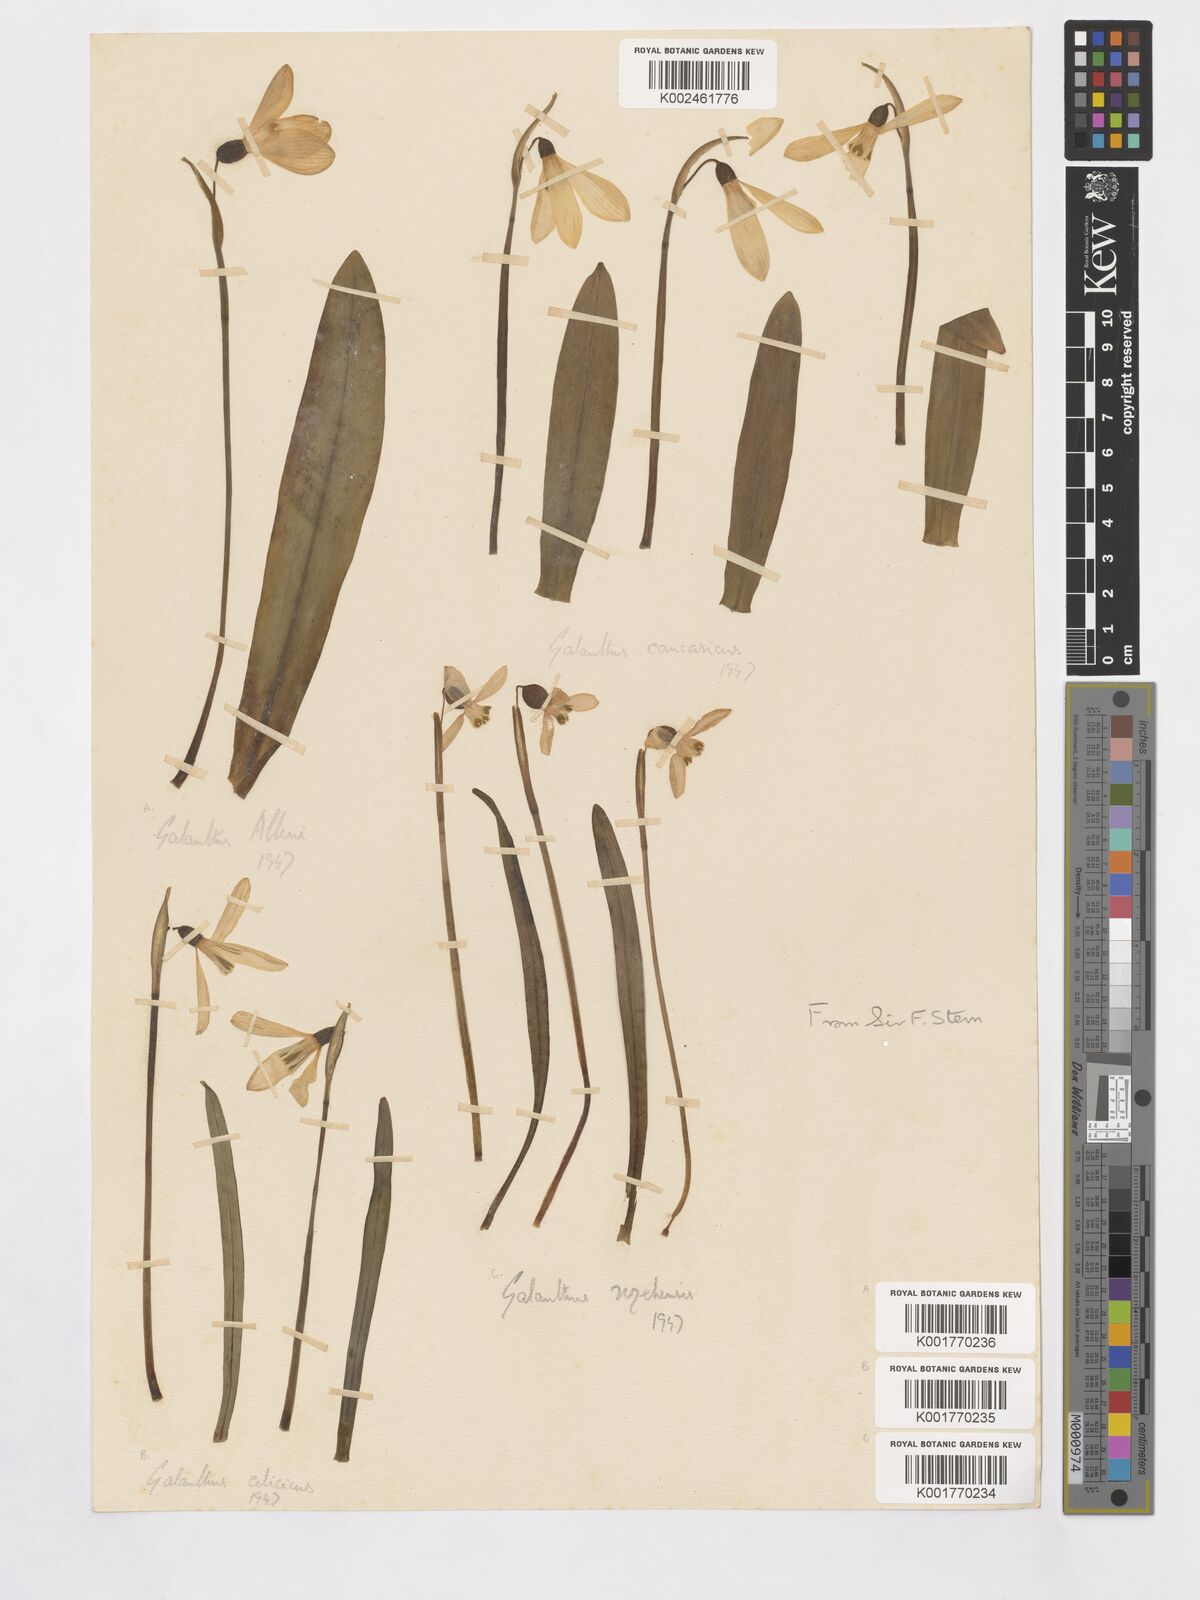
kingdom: Plantae
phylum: Tracheophyta
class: Liliopsida
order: Asparagales
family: Amaryllidaceae
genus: Galanthus
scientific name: Galanthus cilicicus
